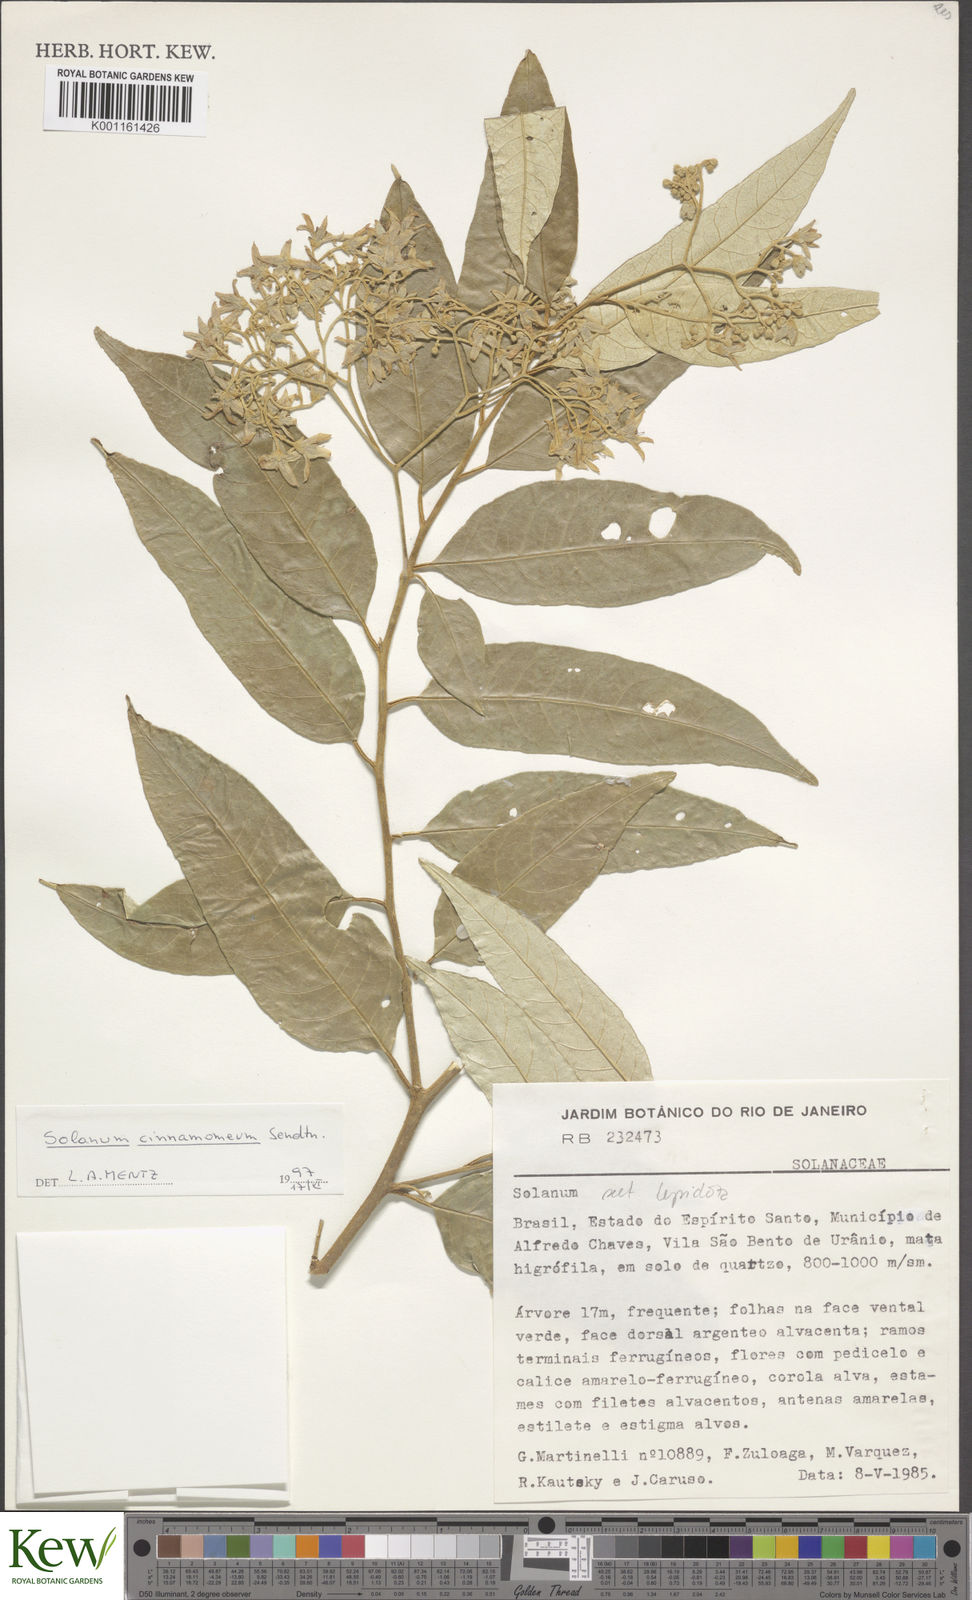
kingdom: Plantae
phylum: Tracheophyta
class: Magnoliopsida
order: Solanales
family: Solanaceae
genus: Solanum
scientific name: Solanum cinnamomeum
